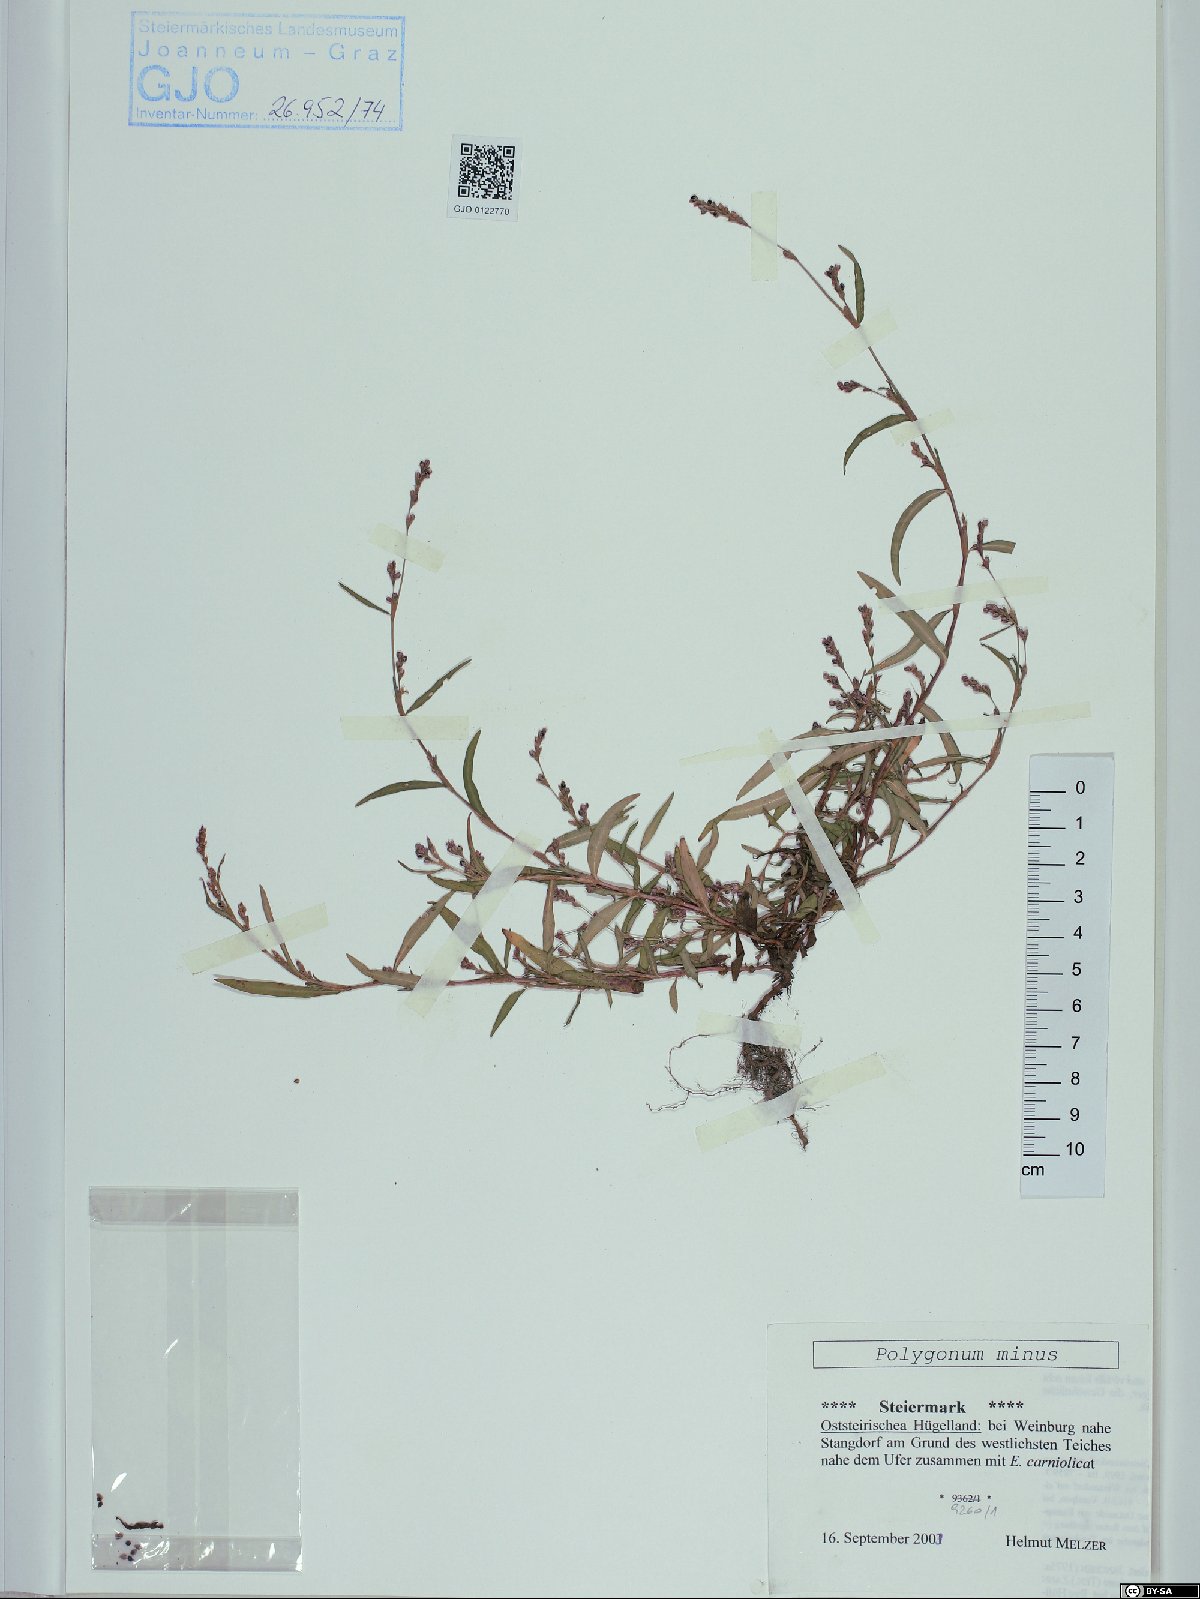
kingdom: Plantae
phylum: Tracheophyta
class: Magnoliopsida
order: Caryophyllales
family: Polygonaceae
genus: Persicaria
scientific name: Persicaria minor
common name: Small water-pepper
